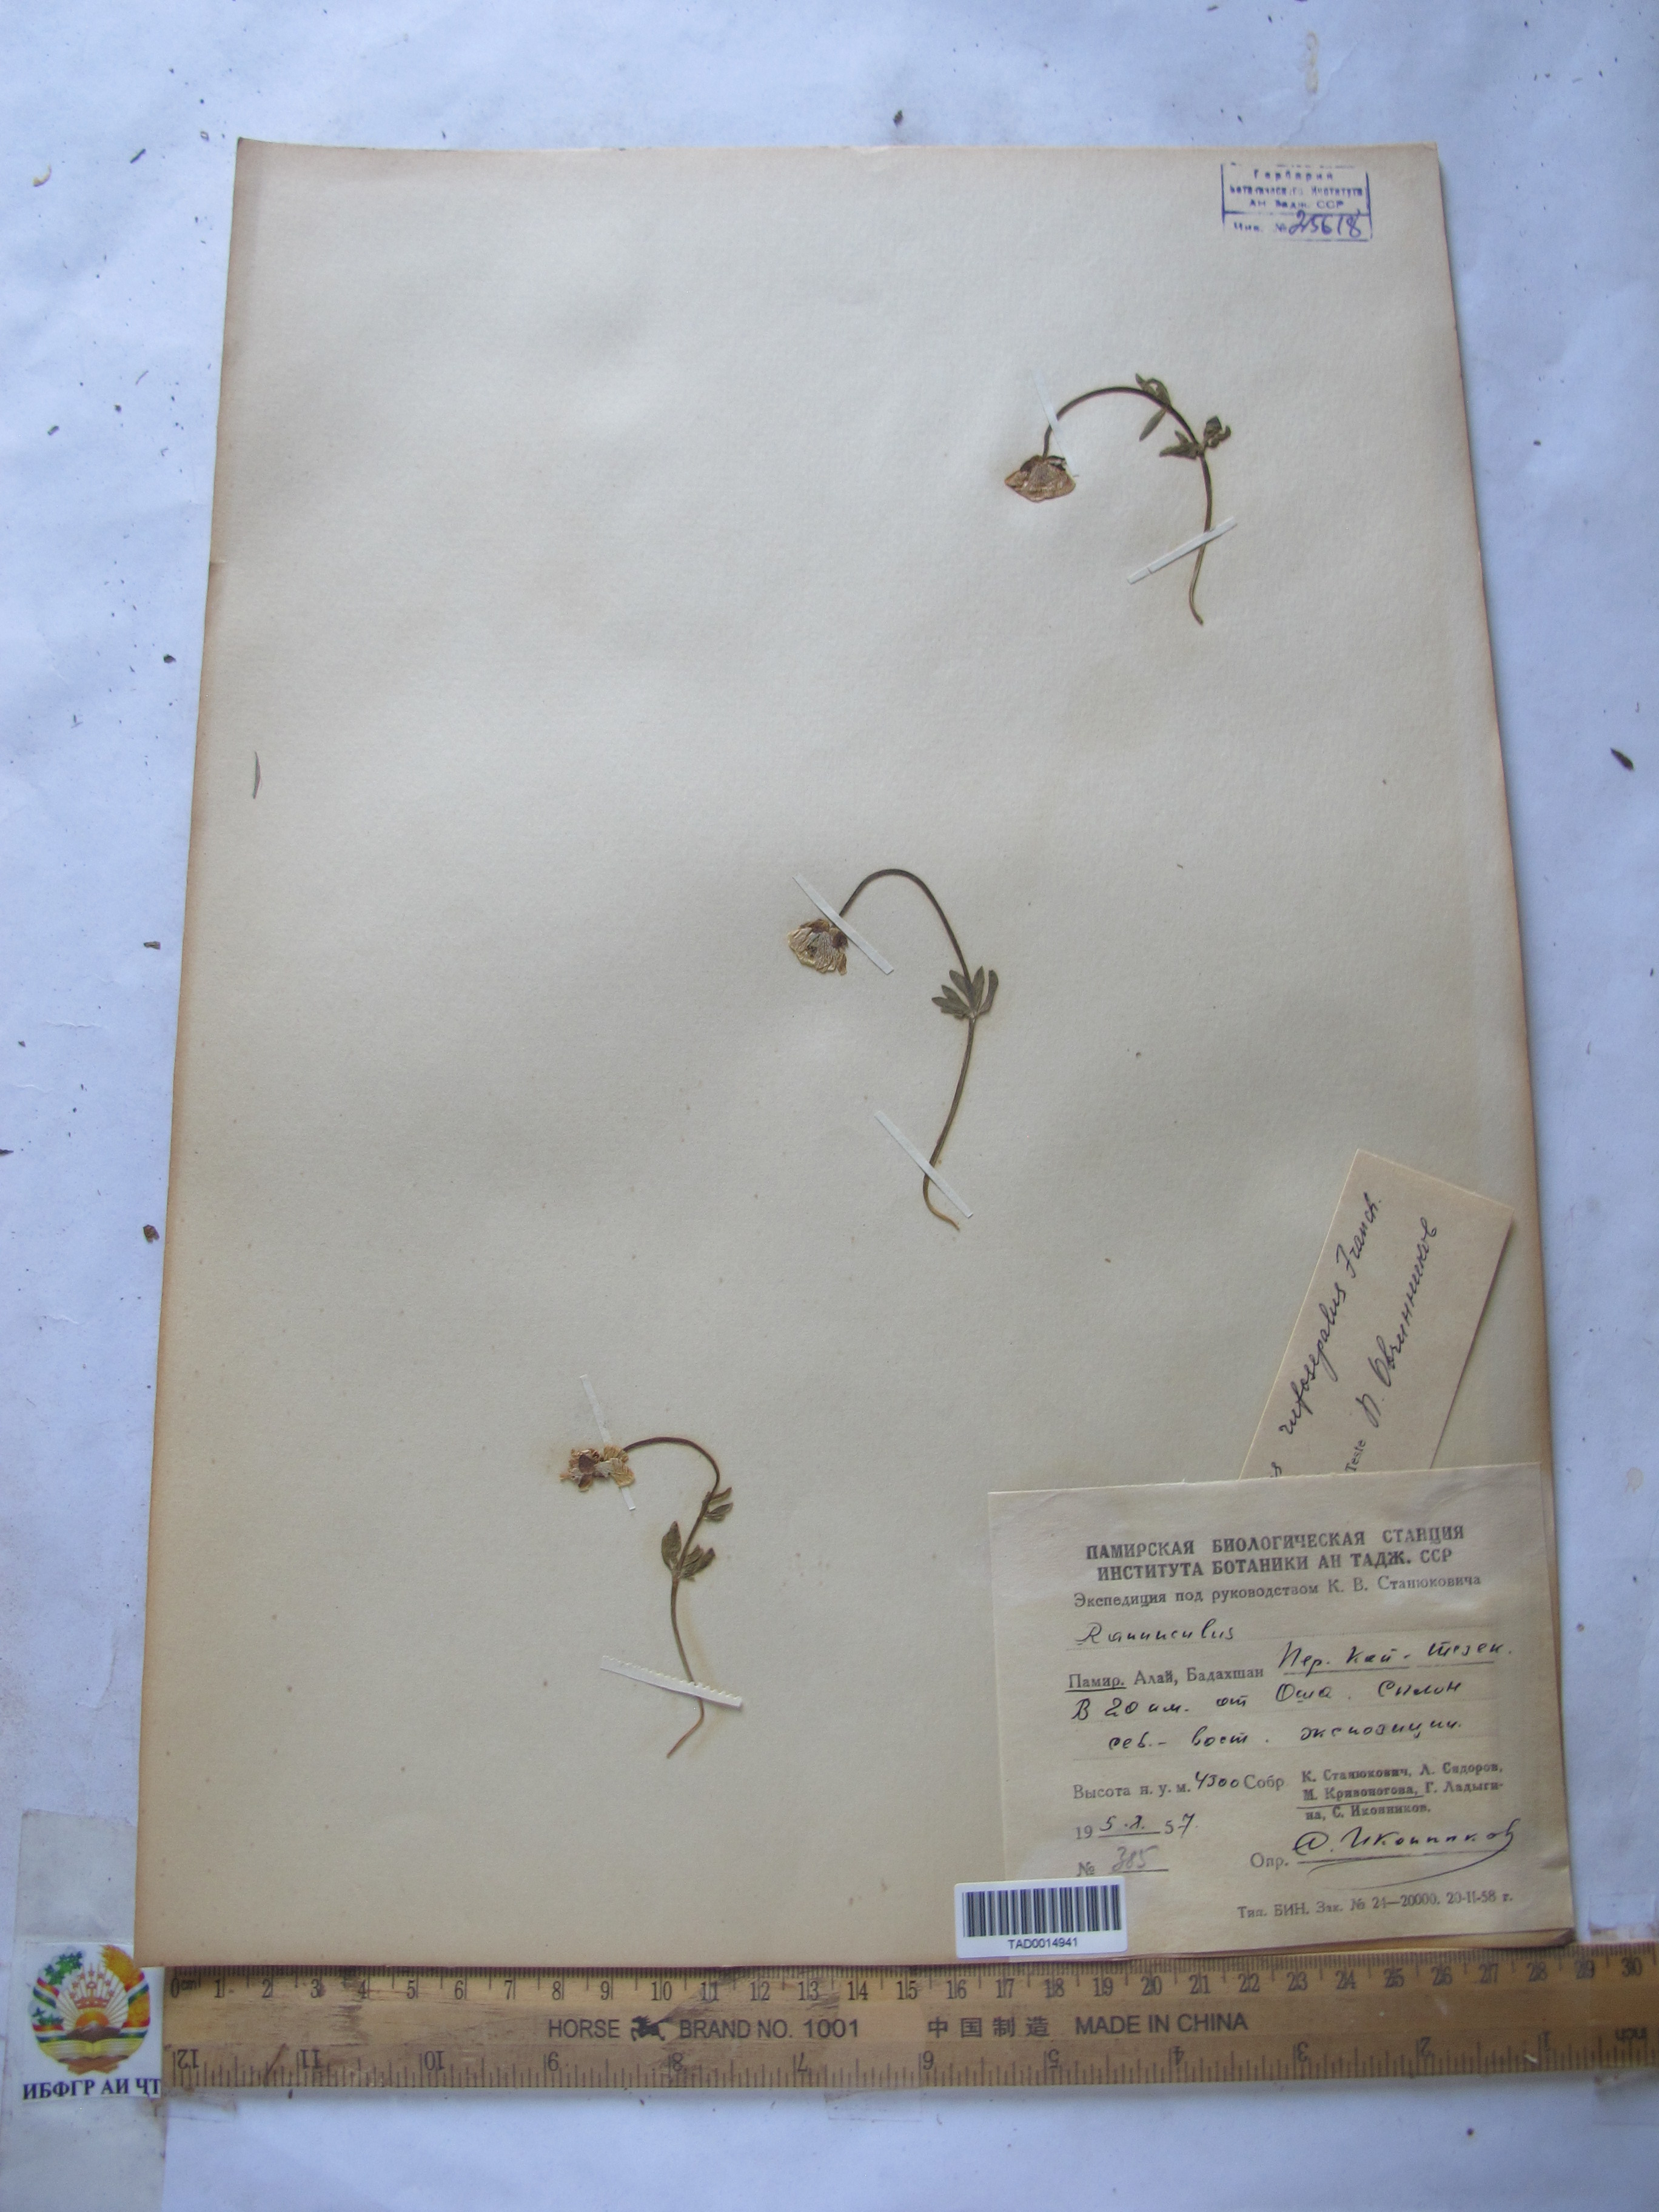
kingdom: Plantae
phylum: Tracheophyta
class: Magnoliopsida
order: Ranunculales
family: Ranunculaceae
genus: Ranunculus
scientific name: Ranunculus rufosepalus
